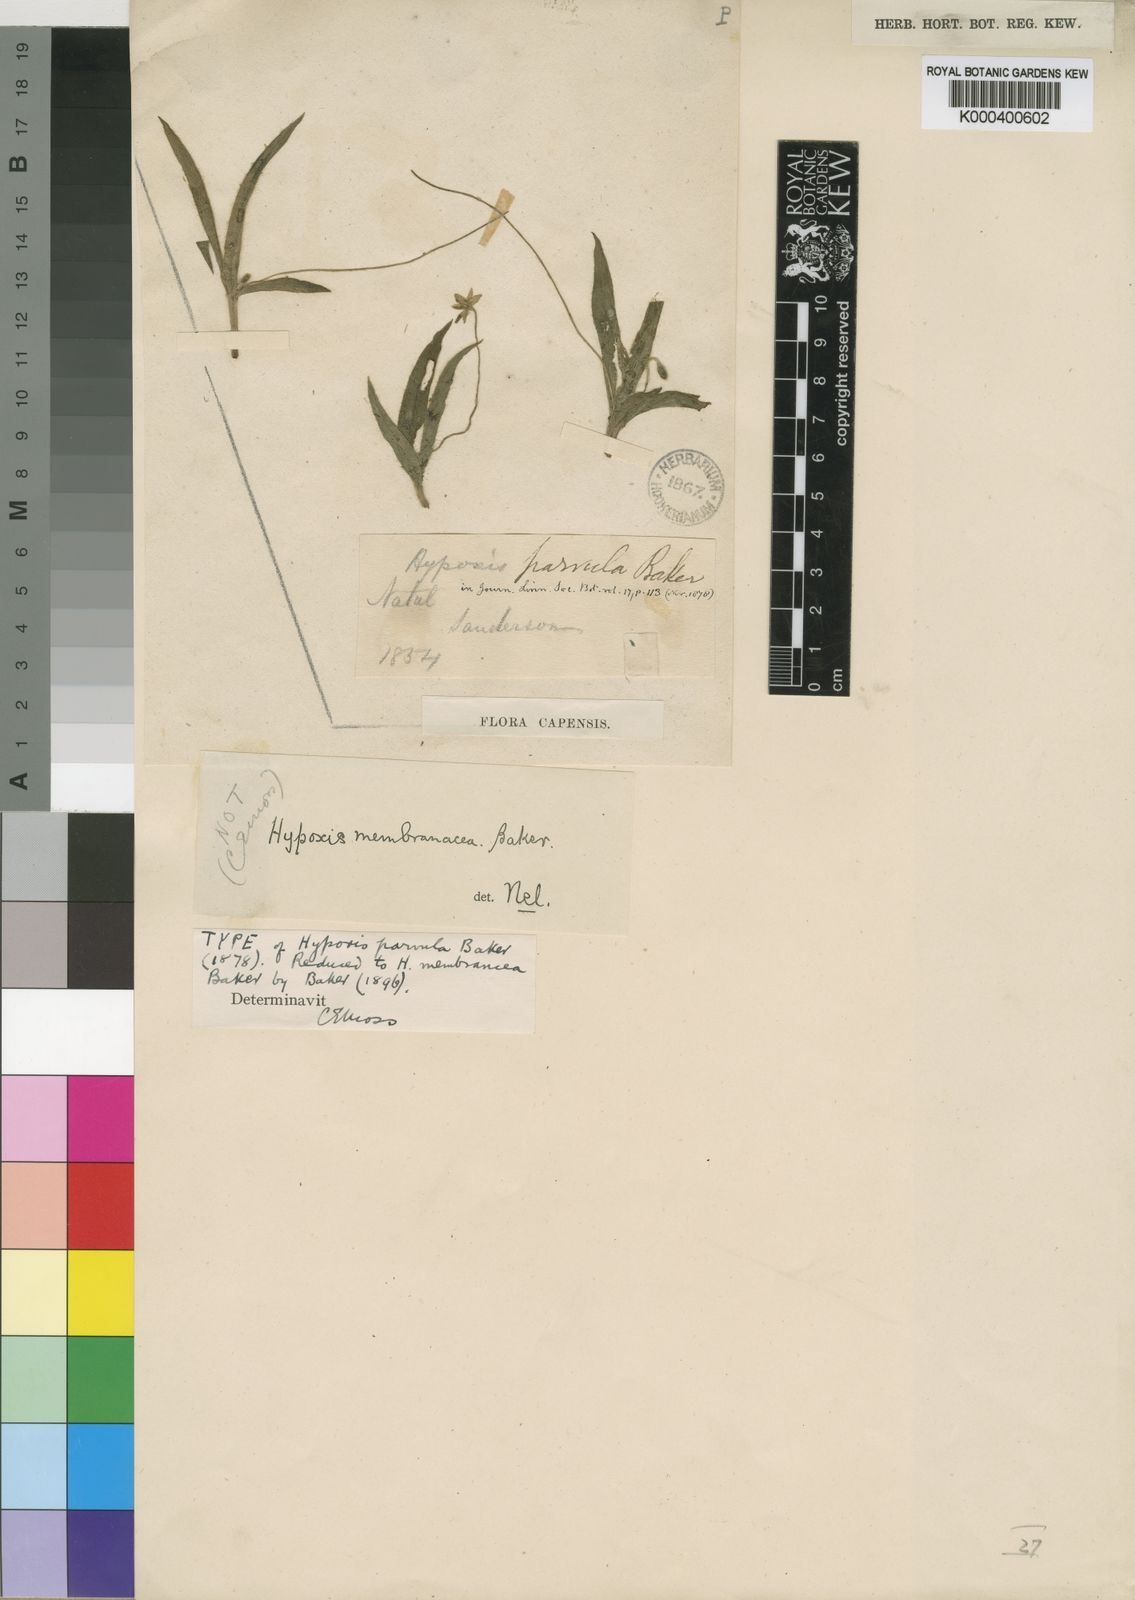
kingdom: Plantae
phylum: Tracheophyta
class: Liliopsida
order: Asparagales
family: Hypoxidaceae
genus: Hypoxis
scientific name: Hypoxis parvula
